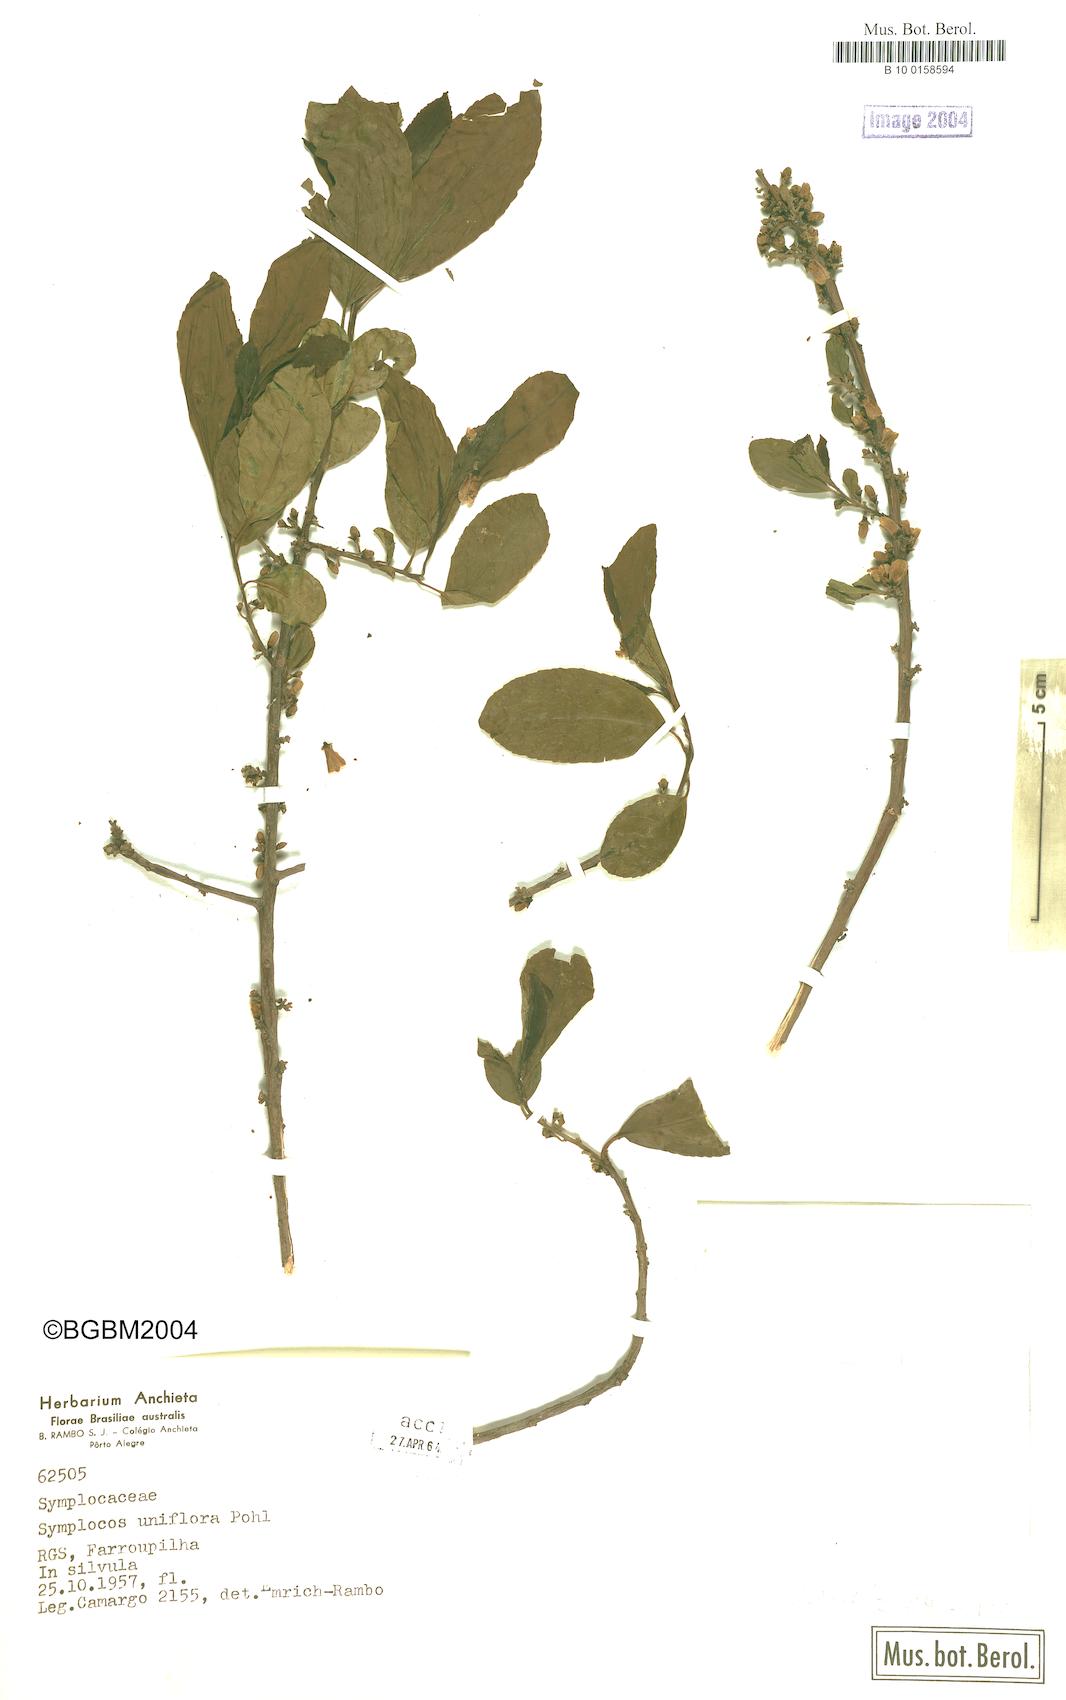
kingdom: Plantae
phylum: Tracheophyta
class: Magnoliopsida
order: Ericales
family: Symplocaceae
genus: Symplocos
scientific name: Symplocos uniflora
